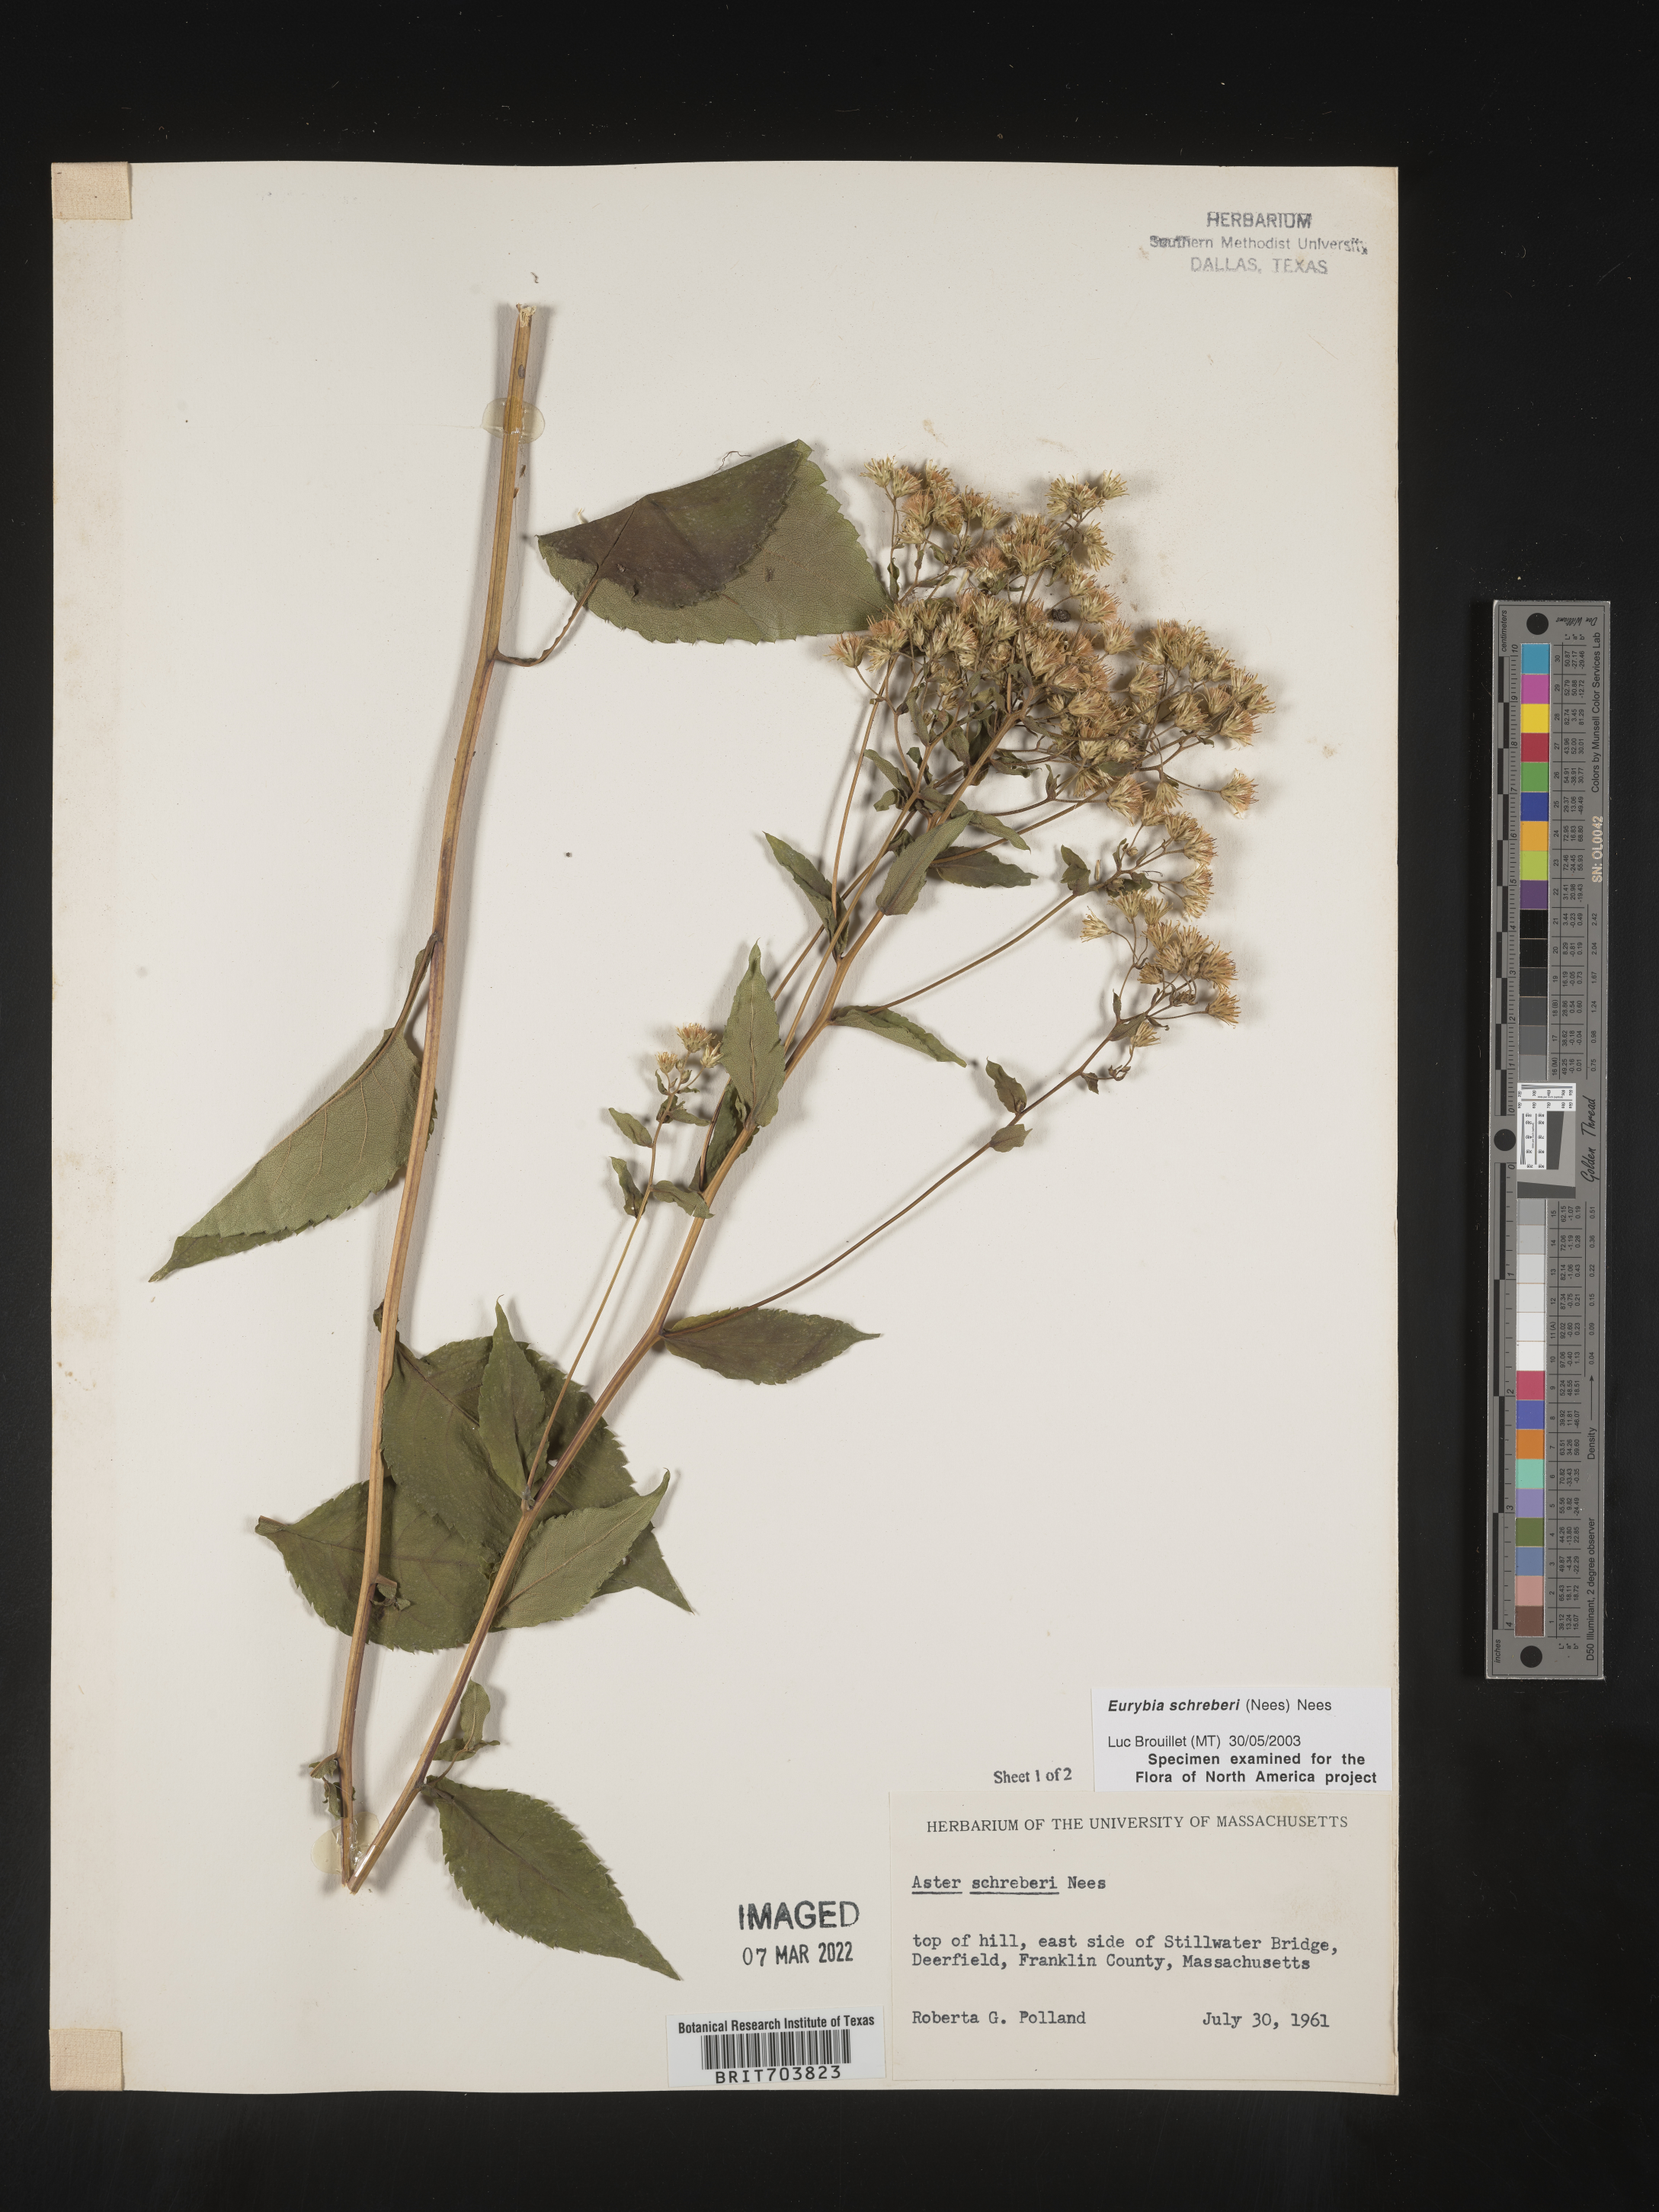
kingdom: Plantae
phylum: Tracheophyta
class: Magnoliopsida
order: Asterales
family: Asteraceae
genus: Eurybia
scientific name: Eurybia schreberi
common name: Schreber's aster
